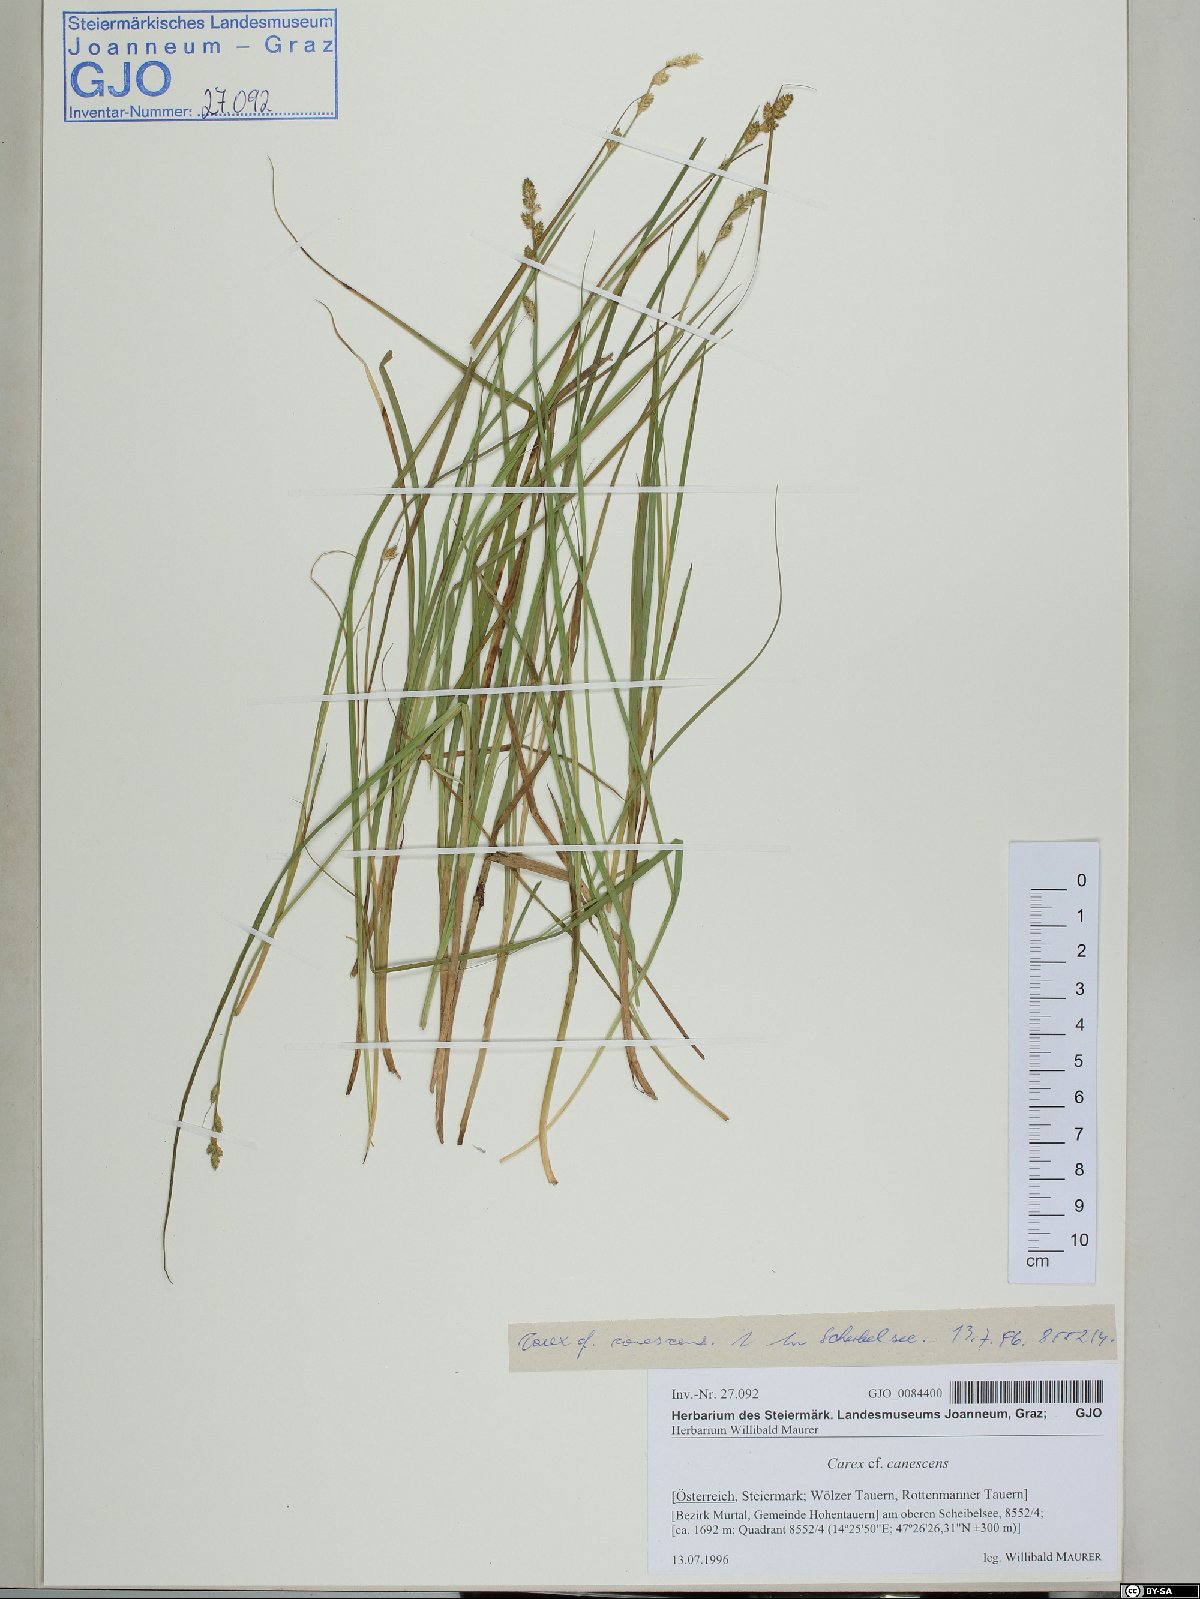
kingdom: Plantae
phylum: Tracheophyta
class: Liliopsida
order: Poales
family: Cyperaceae
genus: Carex
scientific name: Carex canescens
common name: White sedge
